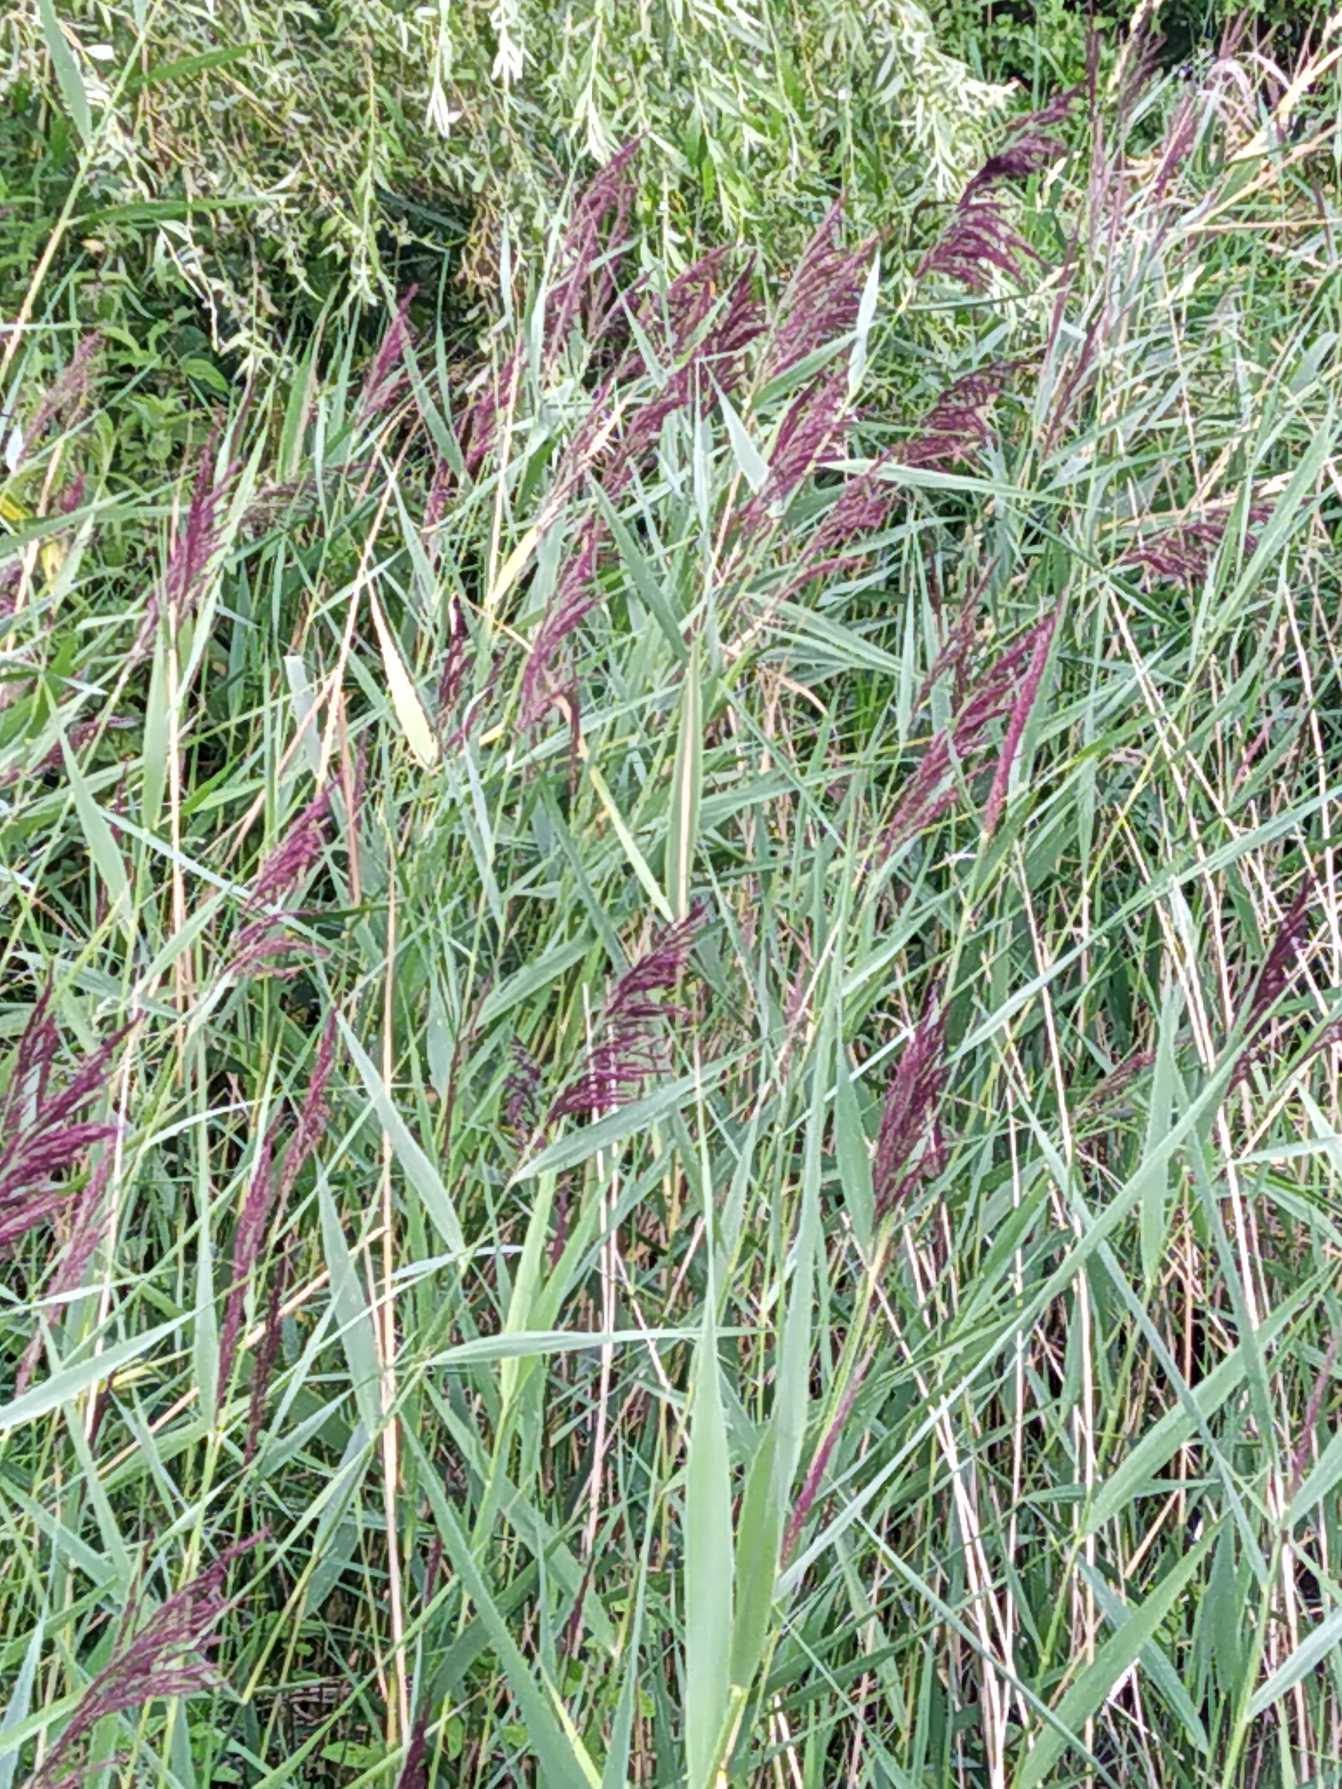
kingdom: Plantae
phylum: Tracheophyta
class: Liliopsida
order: Poales
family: Poaceae
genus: Phragmites
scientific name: Phragmites australis
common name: Tagrør
